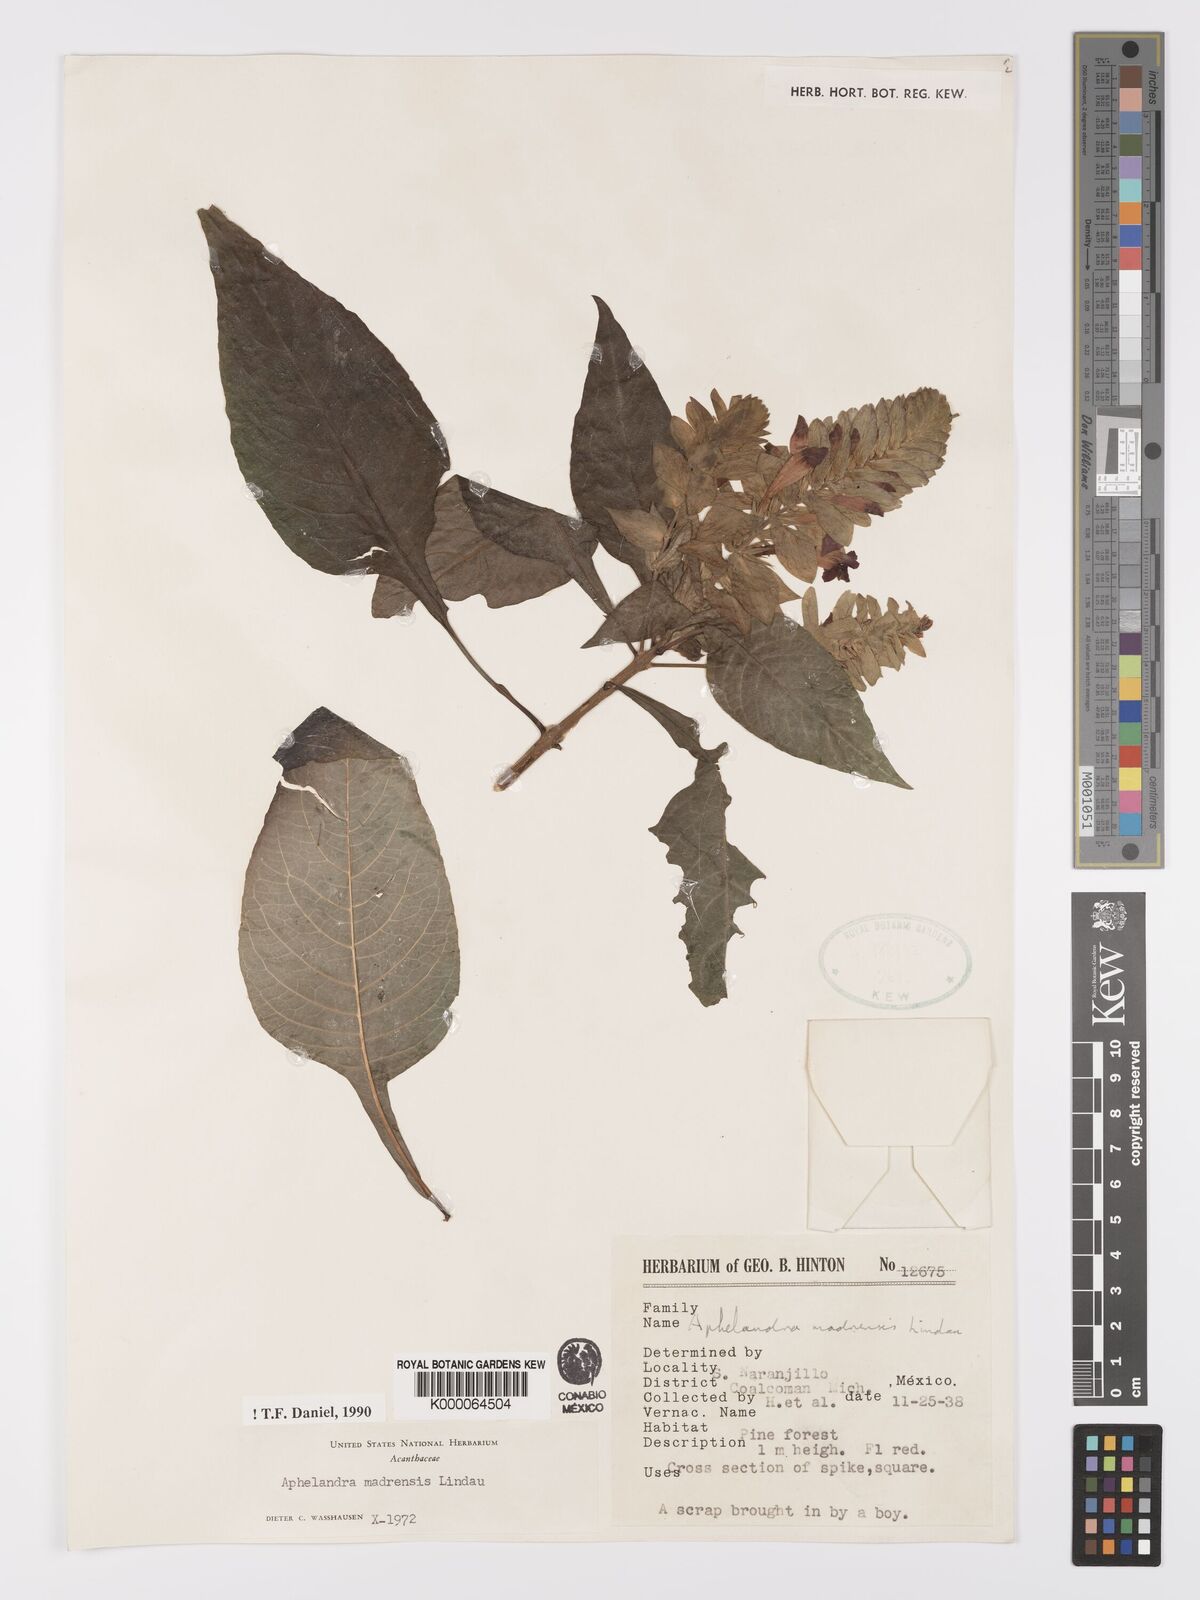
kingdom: Plantae
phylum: Tracheophyta
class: Magnoliopsida
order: Lamiales
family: Acanthaceae
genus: Aphelandra
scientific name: Aphelandra madrensis
